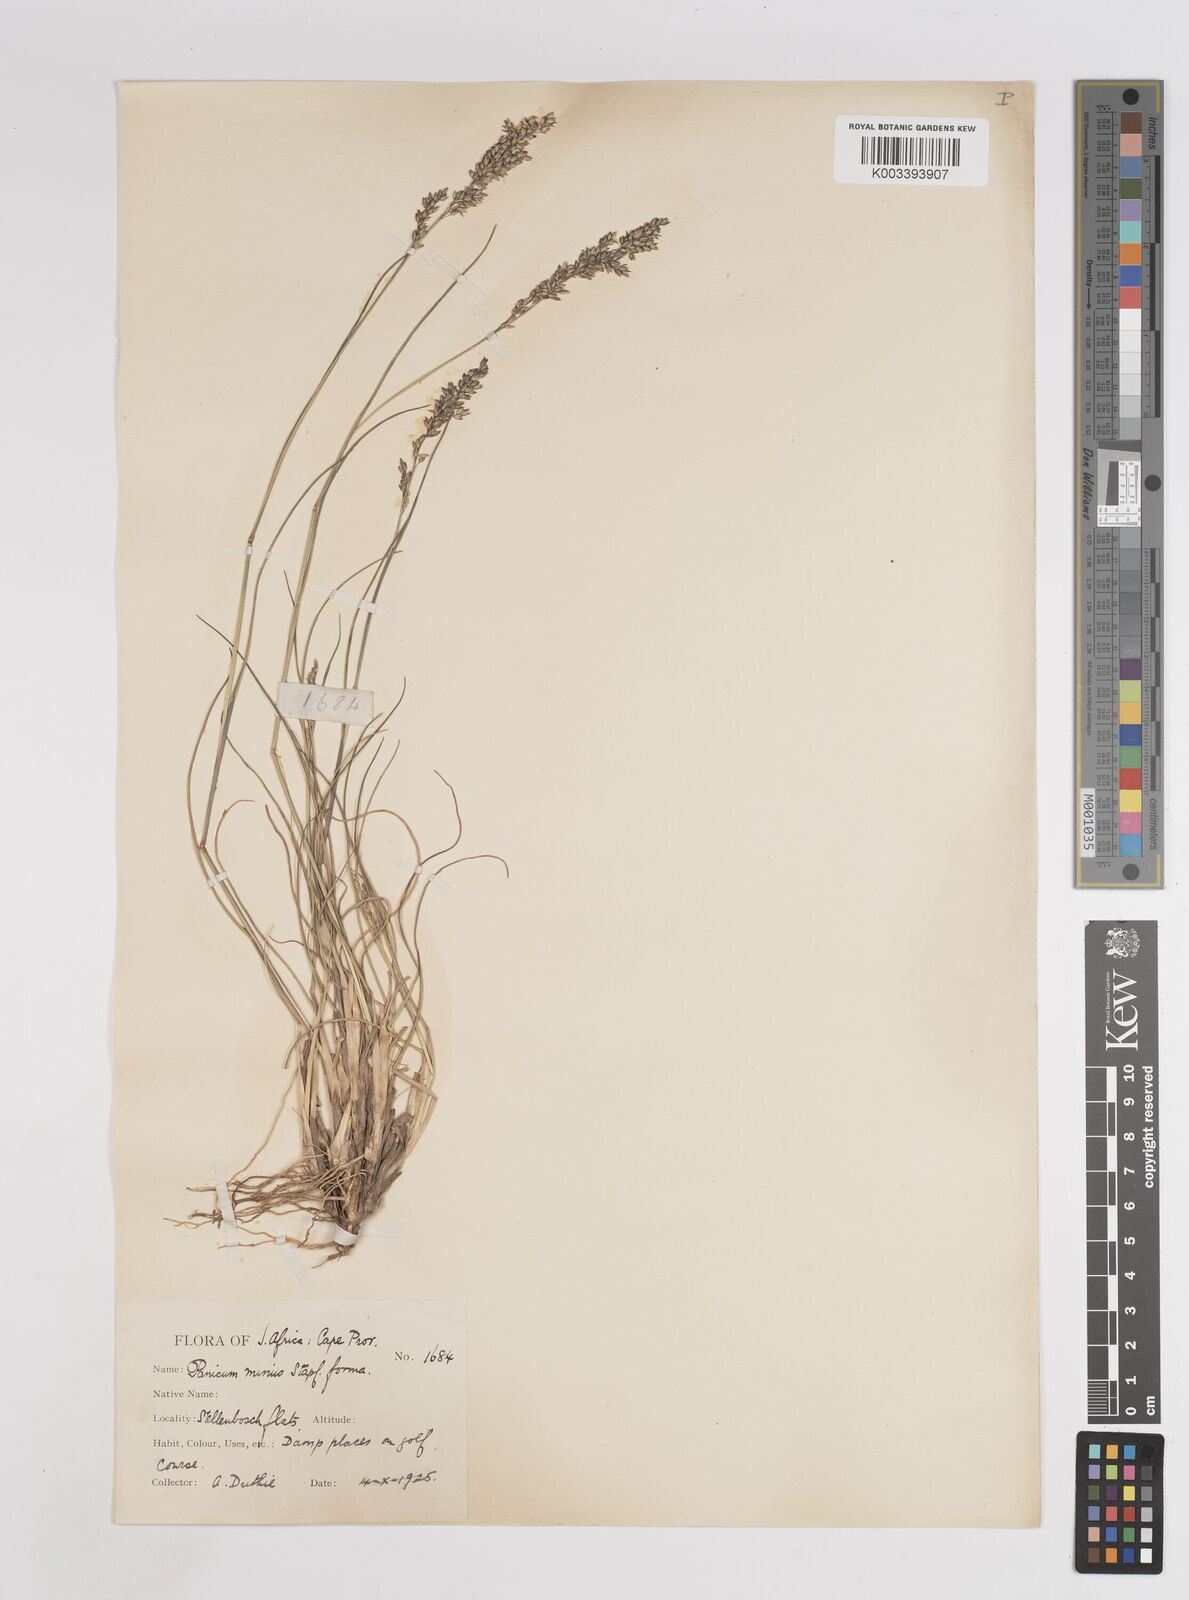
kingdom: Plantae
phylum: Tracheophyta
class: Liliopsida
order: Poales
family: Poaceae
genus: Panicum
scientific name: Panicum stapfianum
